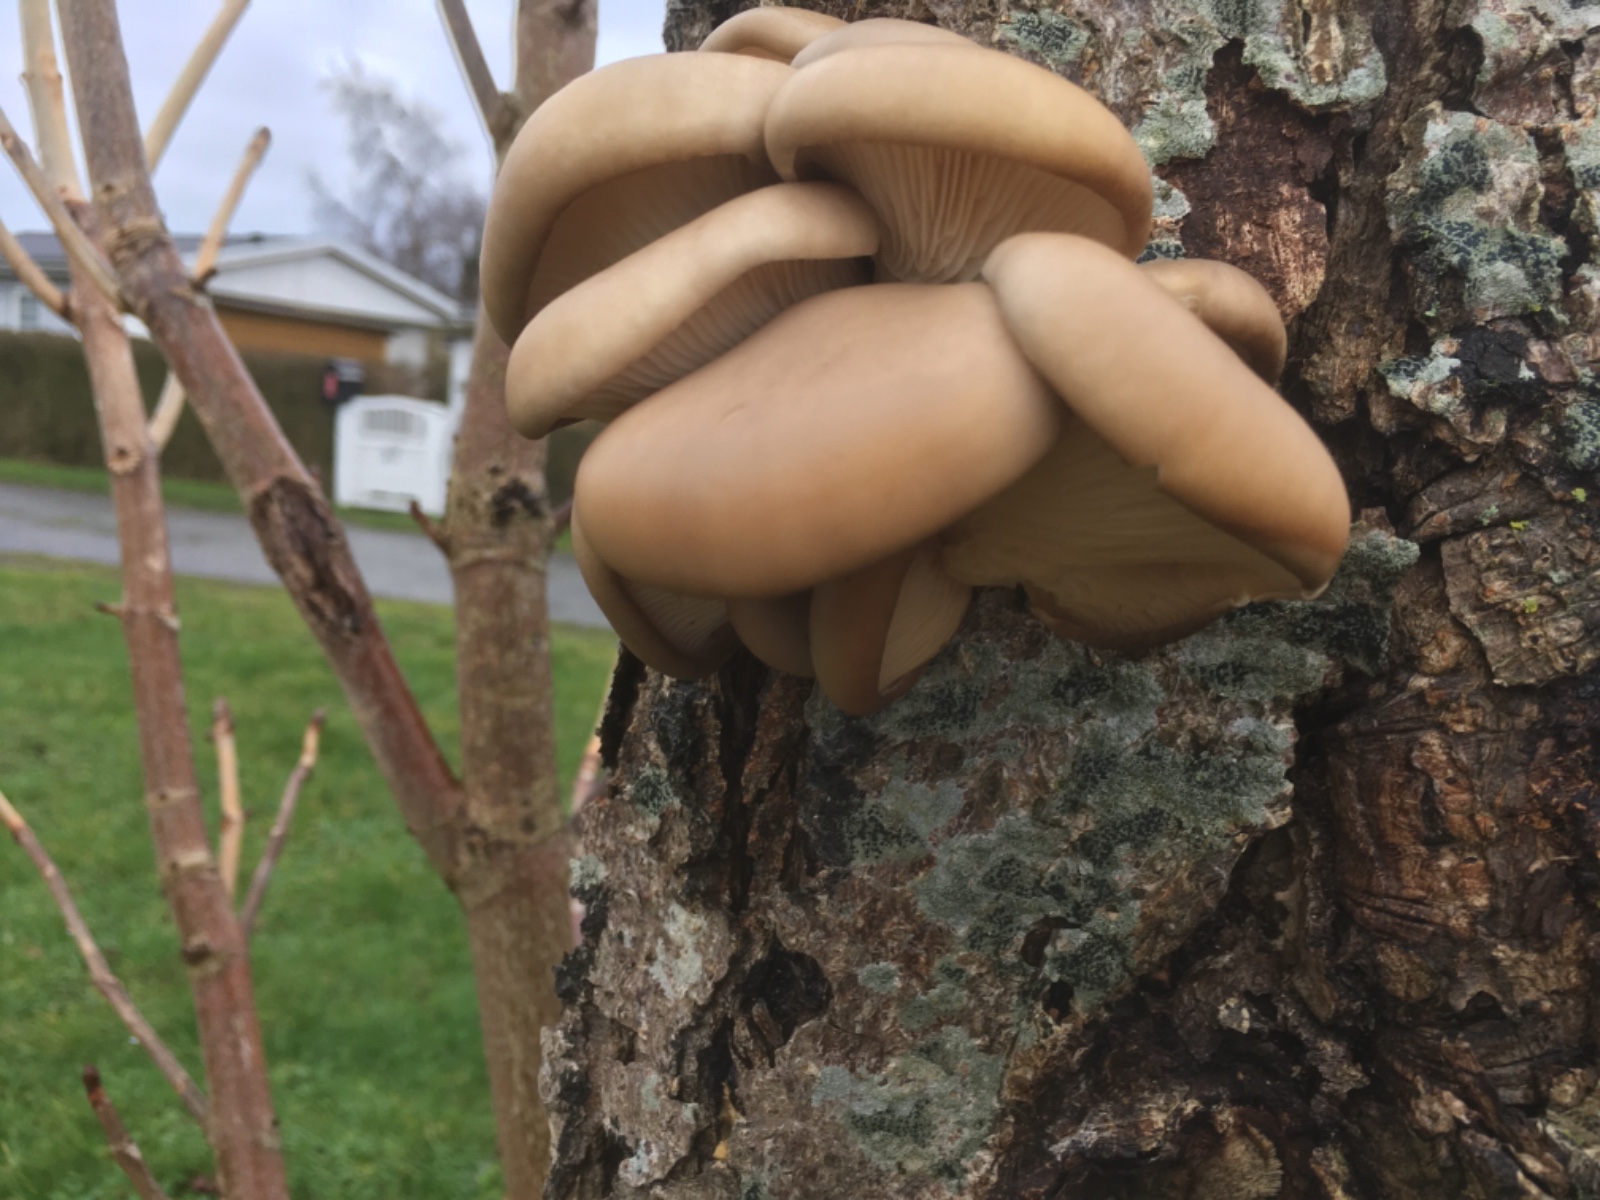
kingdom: Fungi
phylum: Basidiomycota
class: Agaricomycetes
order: Agaricales
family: Pleurotaceae
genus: Pleurotus
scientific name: Pleurotus ostreatus
